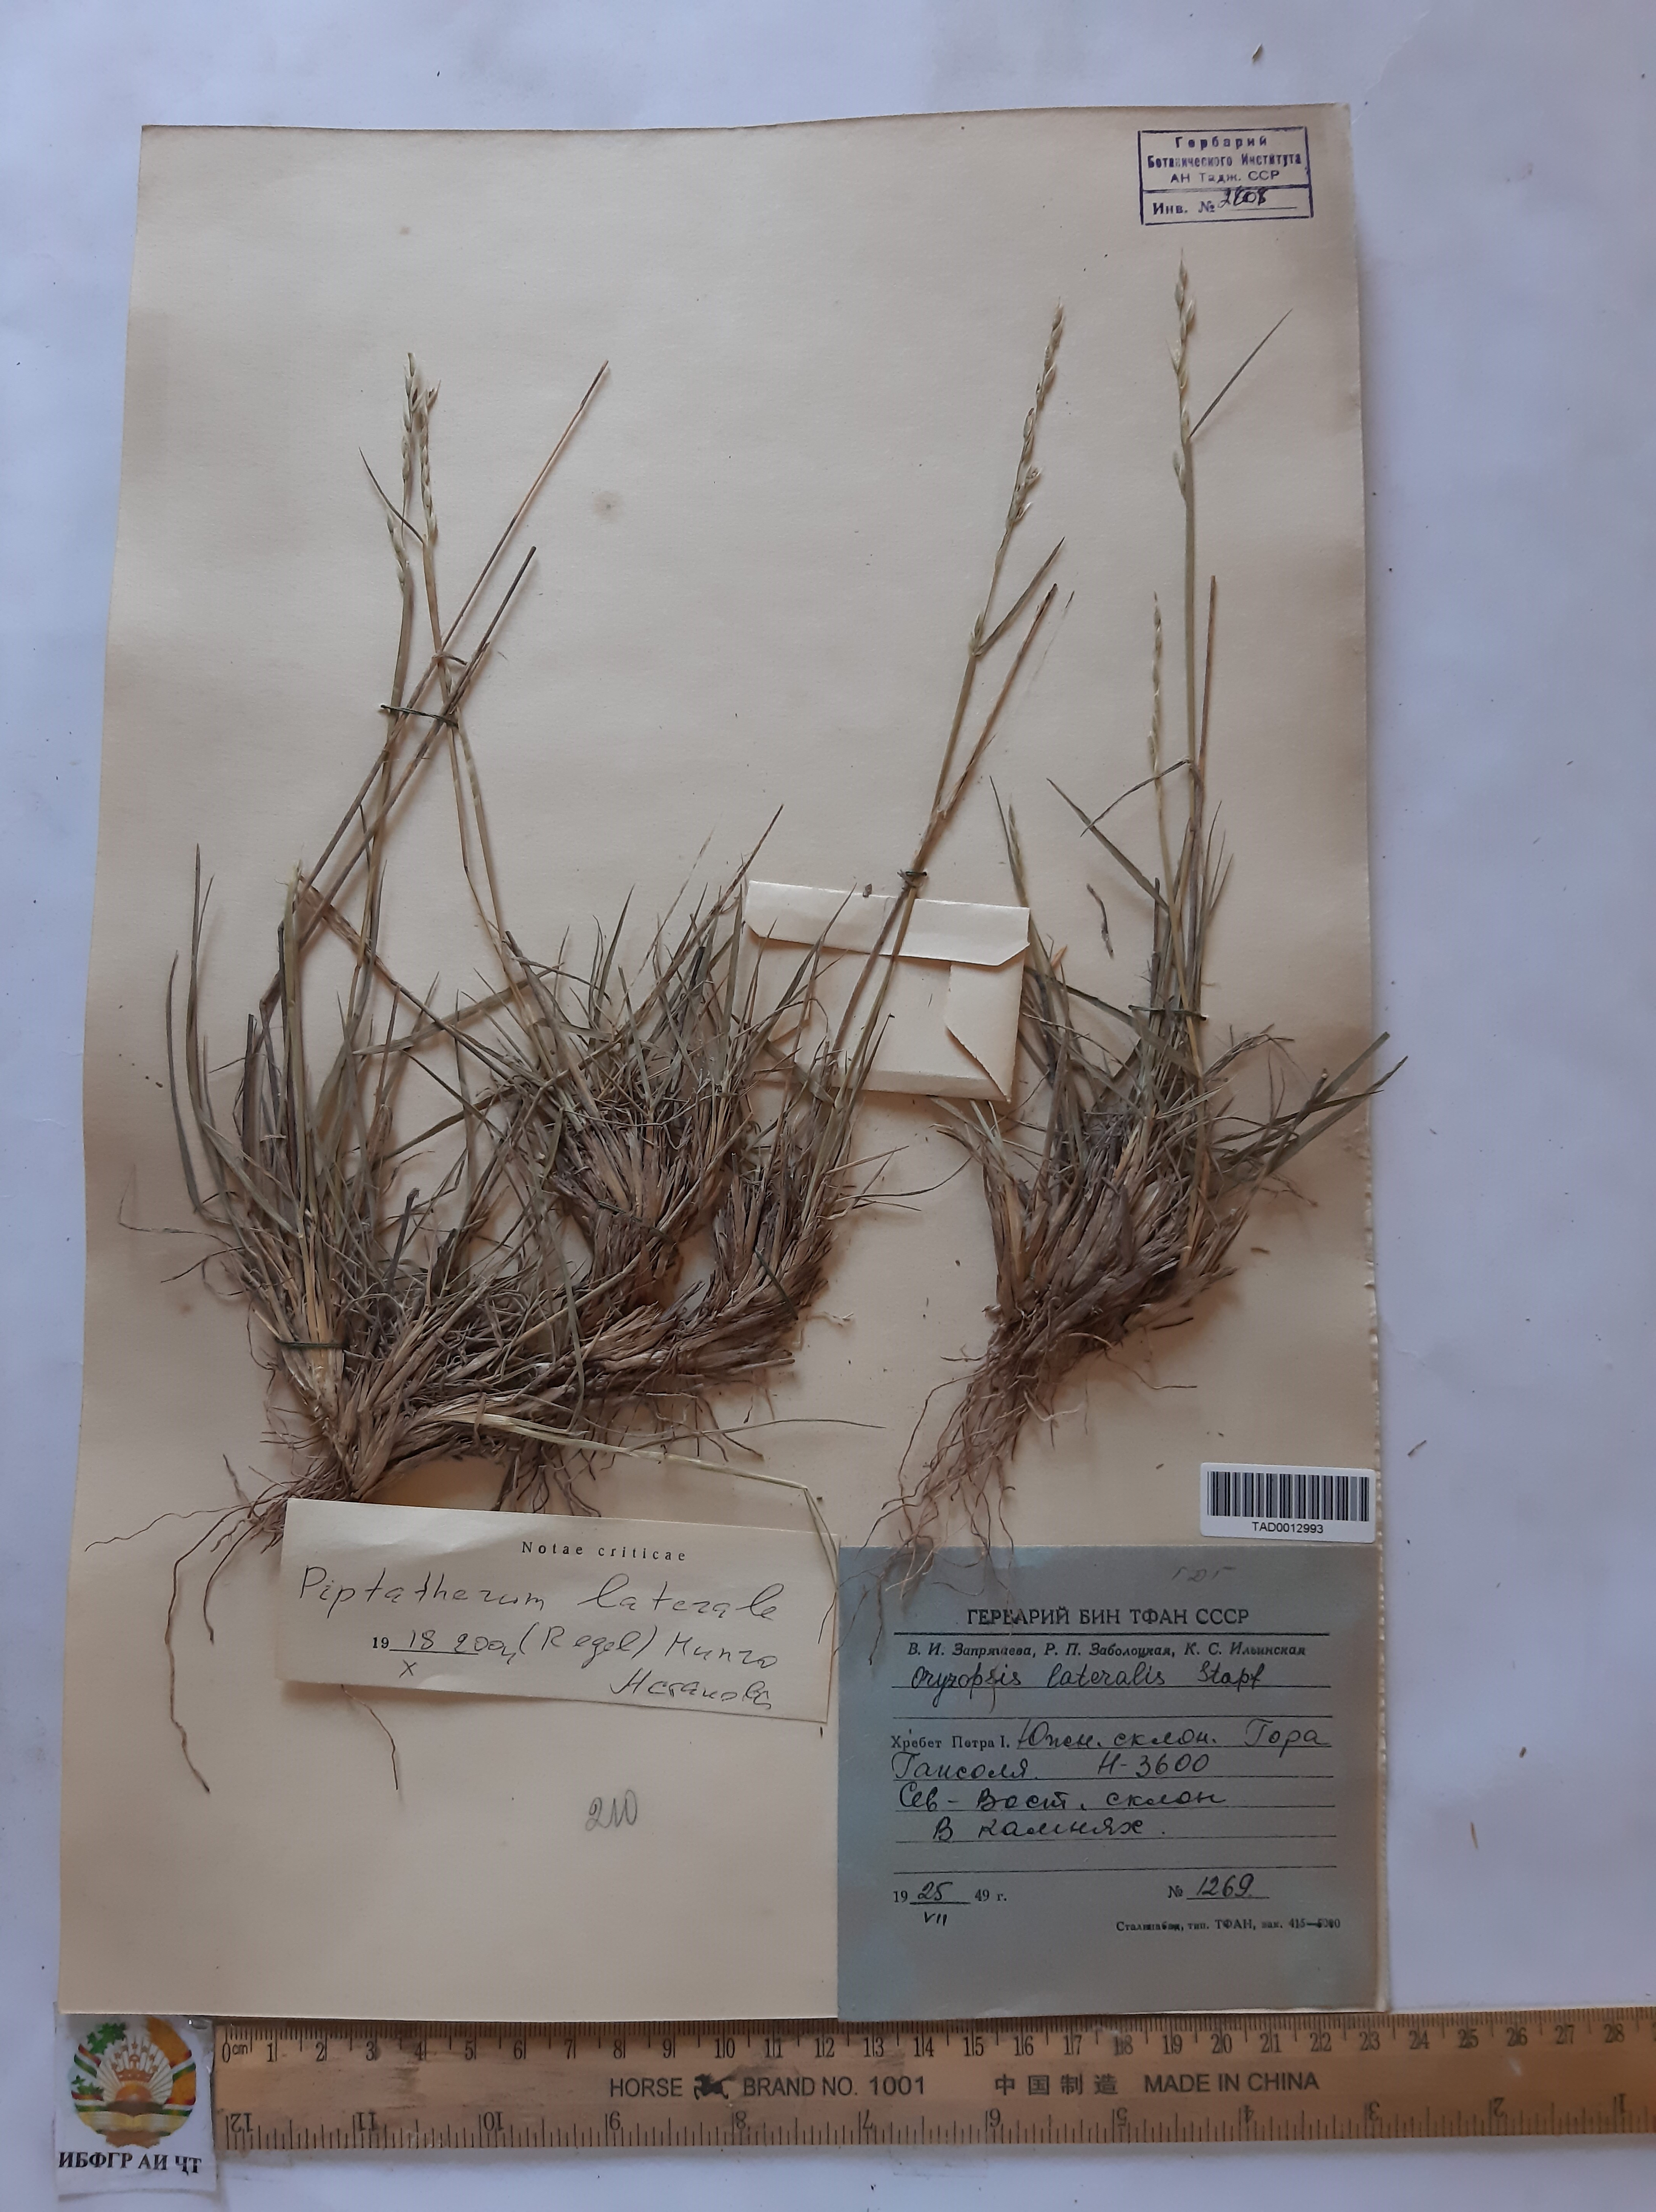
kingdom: Plantae
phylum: Tracheophyta
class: Liliopsida
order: Poales
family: Poaceae
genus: Piptatherum
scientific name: Piptatherum laterale
